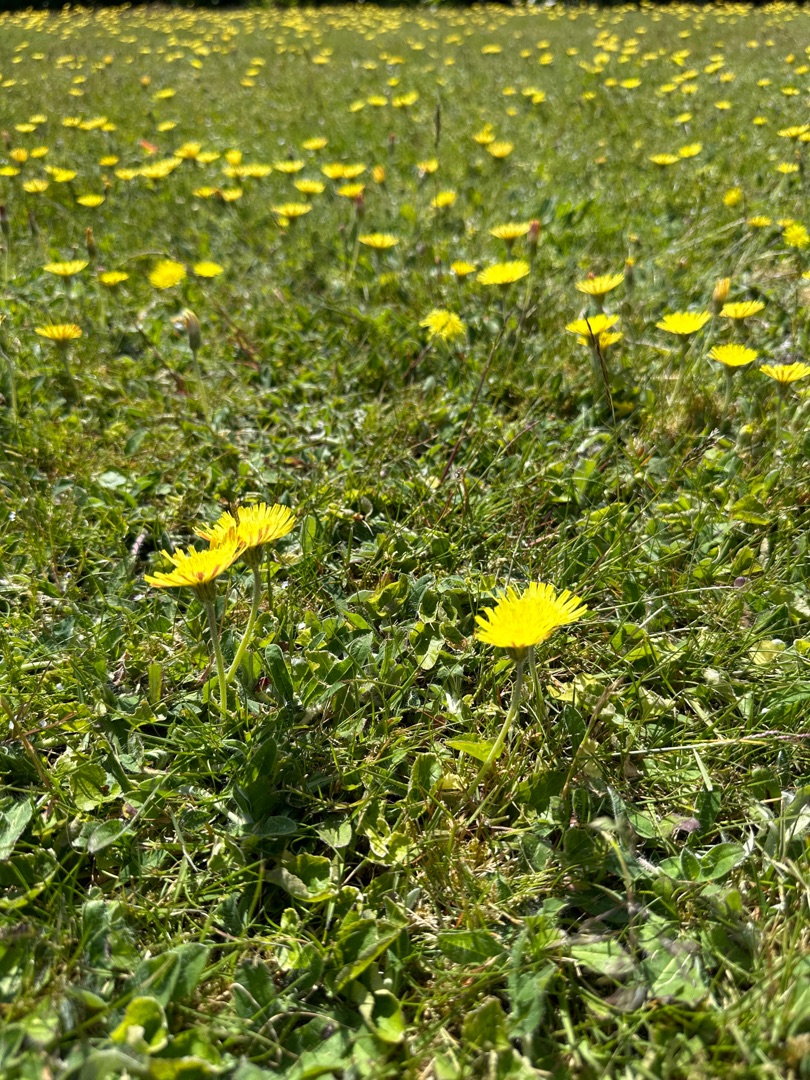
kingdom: Plantae
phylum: Tracheophyta
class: Magnoliopsida
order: Asterales
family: Asteraceae
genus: Pilosella
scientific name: Pilosella officinarum
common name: Håret høgeurt
